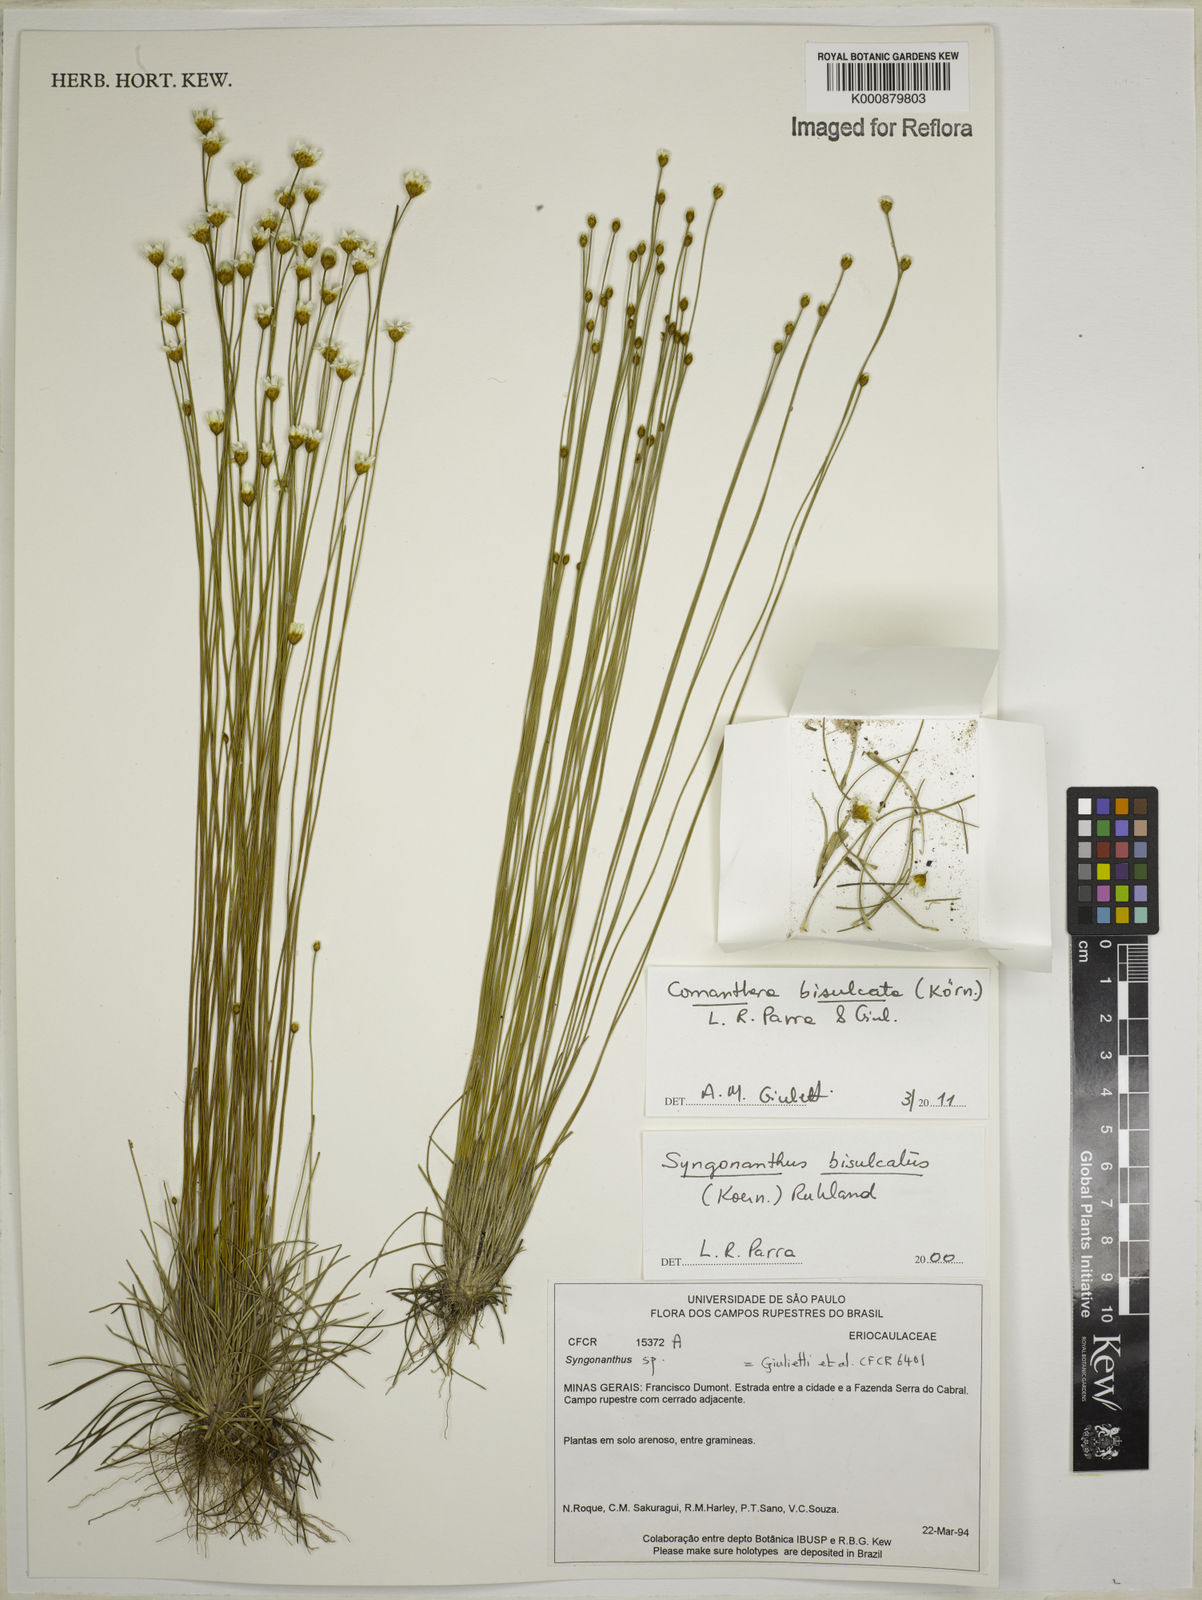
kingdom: Plantae
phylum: Tracheophyta
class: Liliopsida
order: Poales
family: Eriocaulaceae
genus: Comanthera
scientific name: Comanthera
